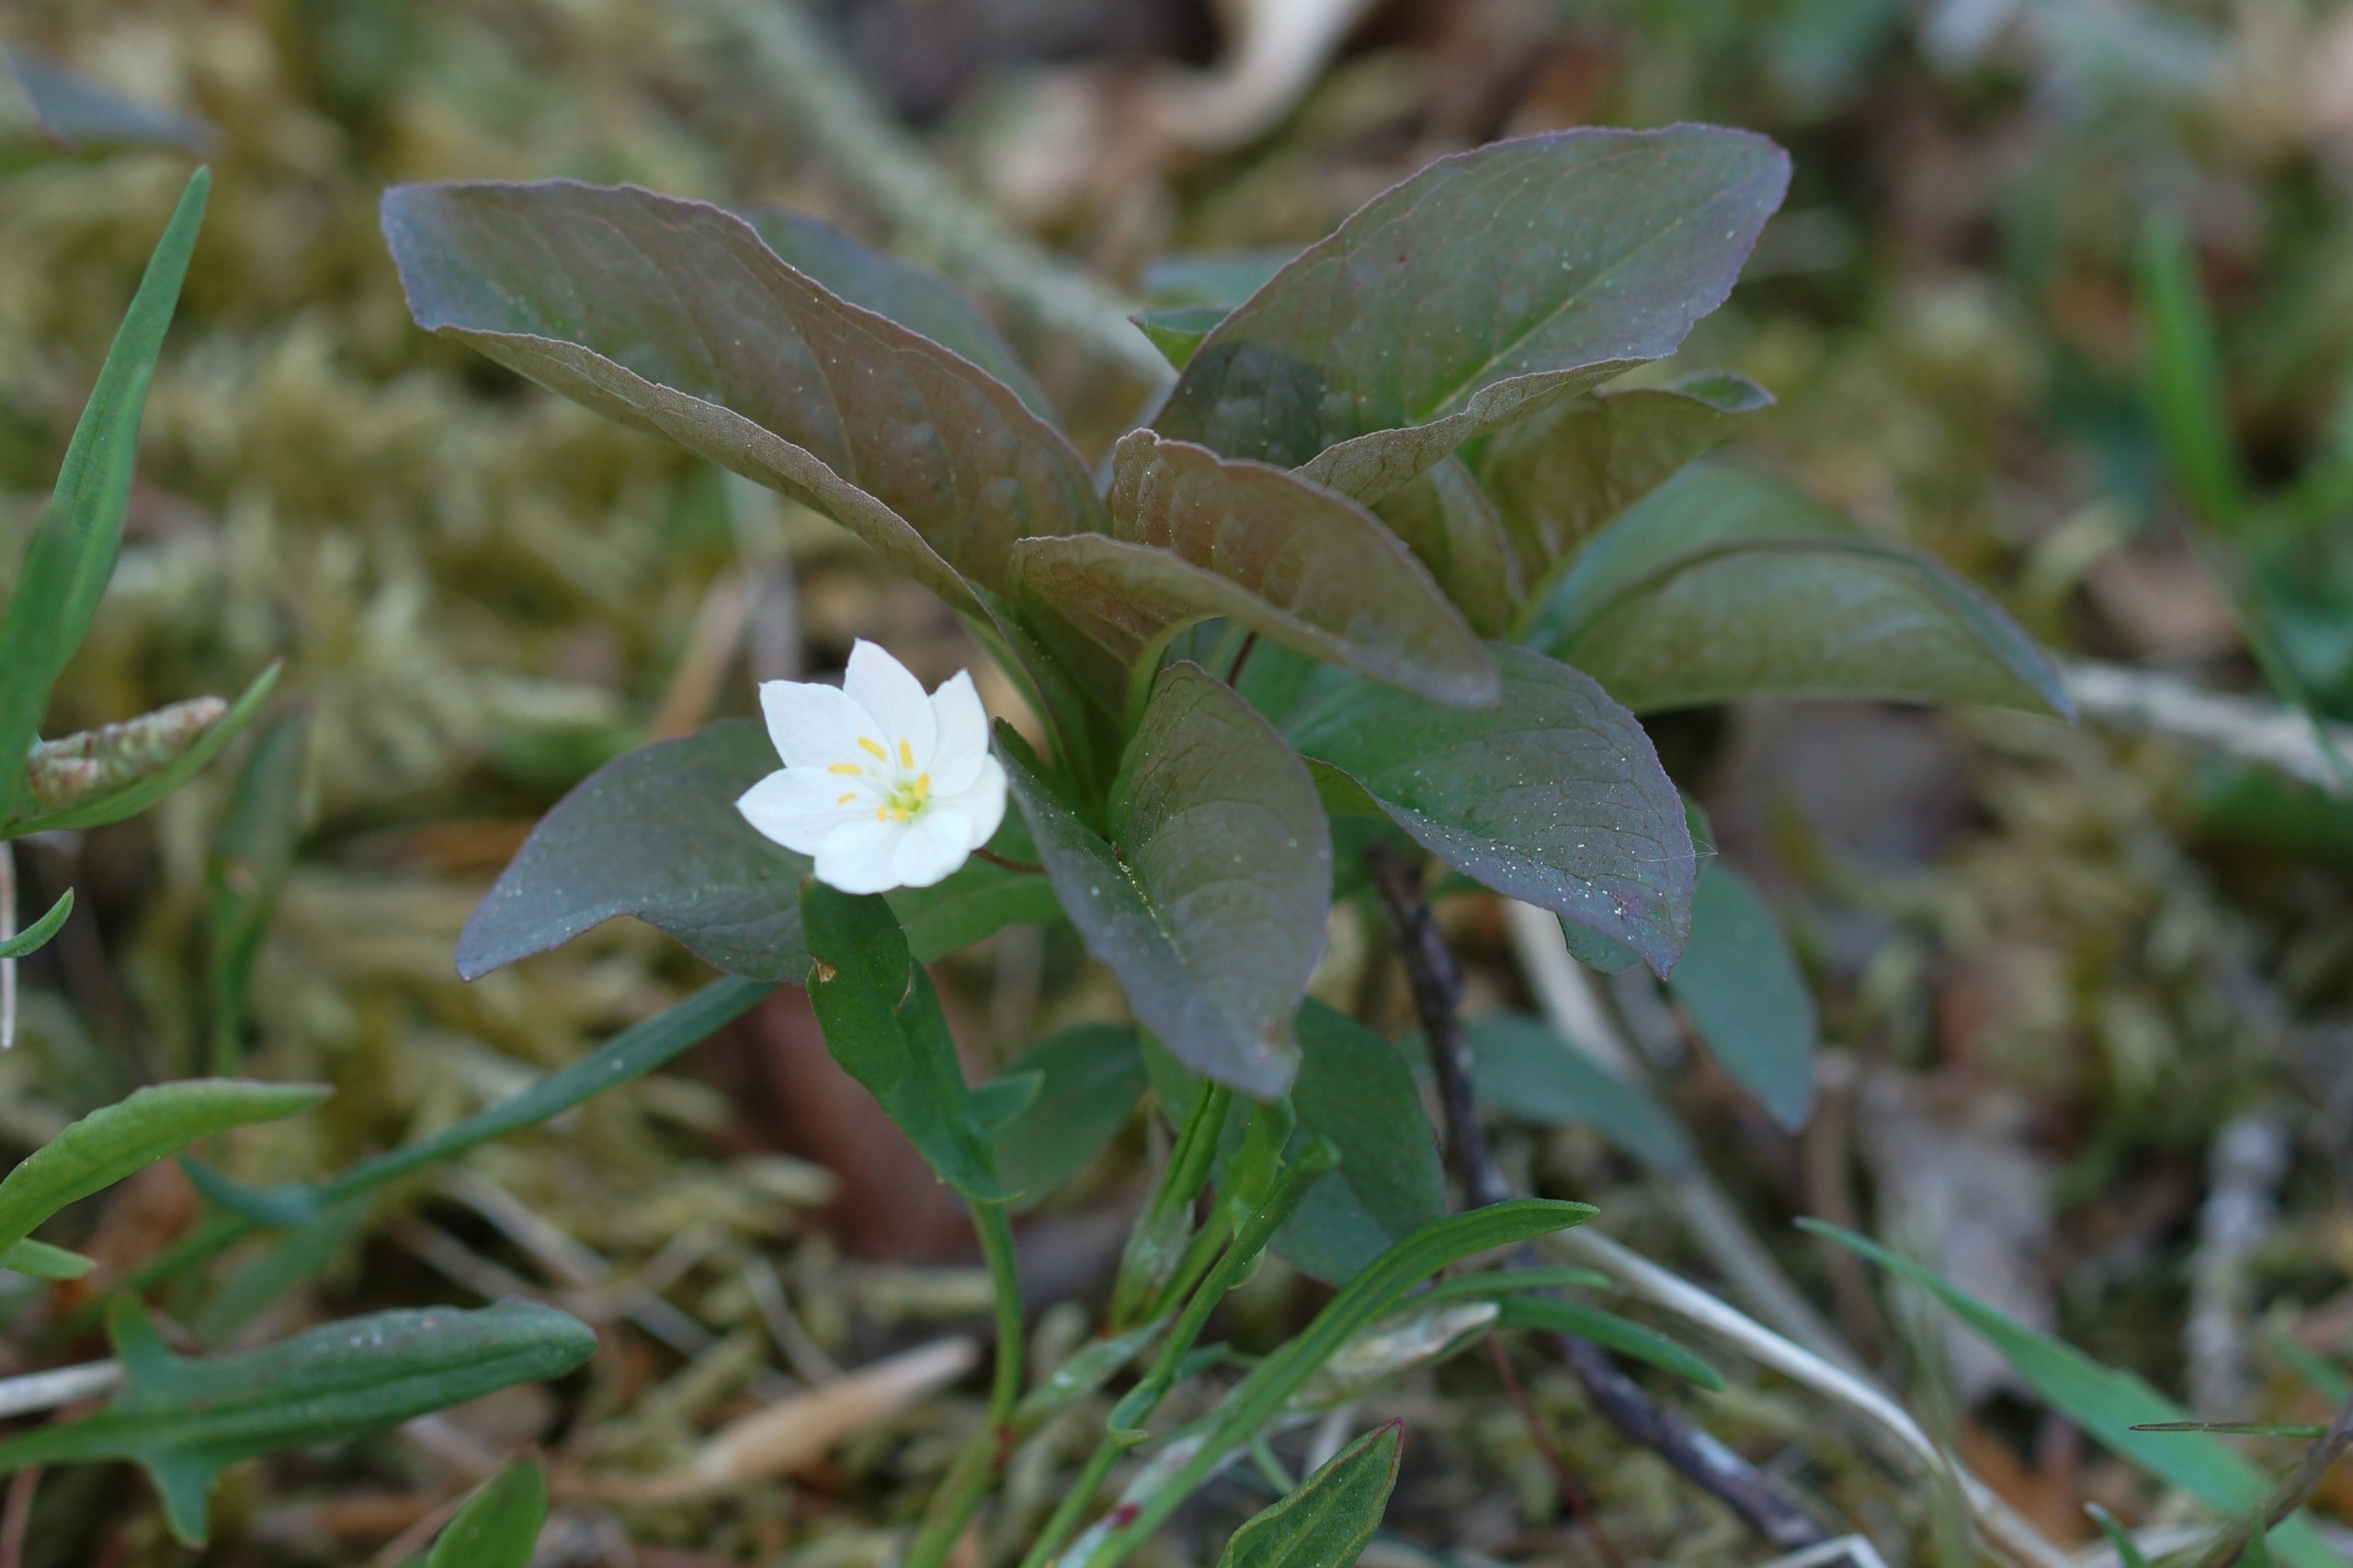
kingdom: Plantae
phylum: Tracheophyta
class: Magnoliopsida
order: Ericales
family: Primulaceae
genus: Lysimachia
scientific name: Lysimachia europaea
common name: Skovstjerne
